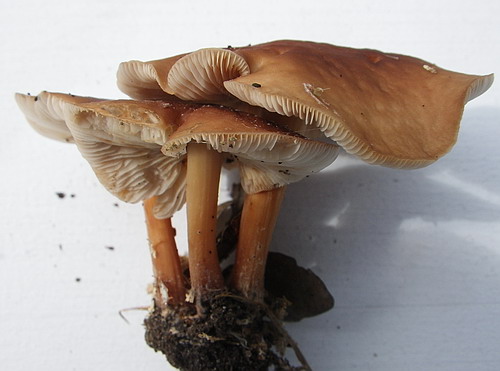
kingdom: Fungi
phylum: Basidiomycota
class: Agaricomycetes
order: Agaricales
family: Omphalotaceae
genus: Gymnopus
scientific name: Gymnopus ocior
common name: mørk fladhat
